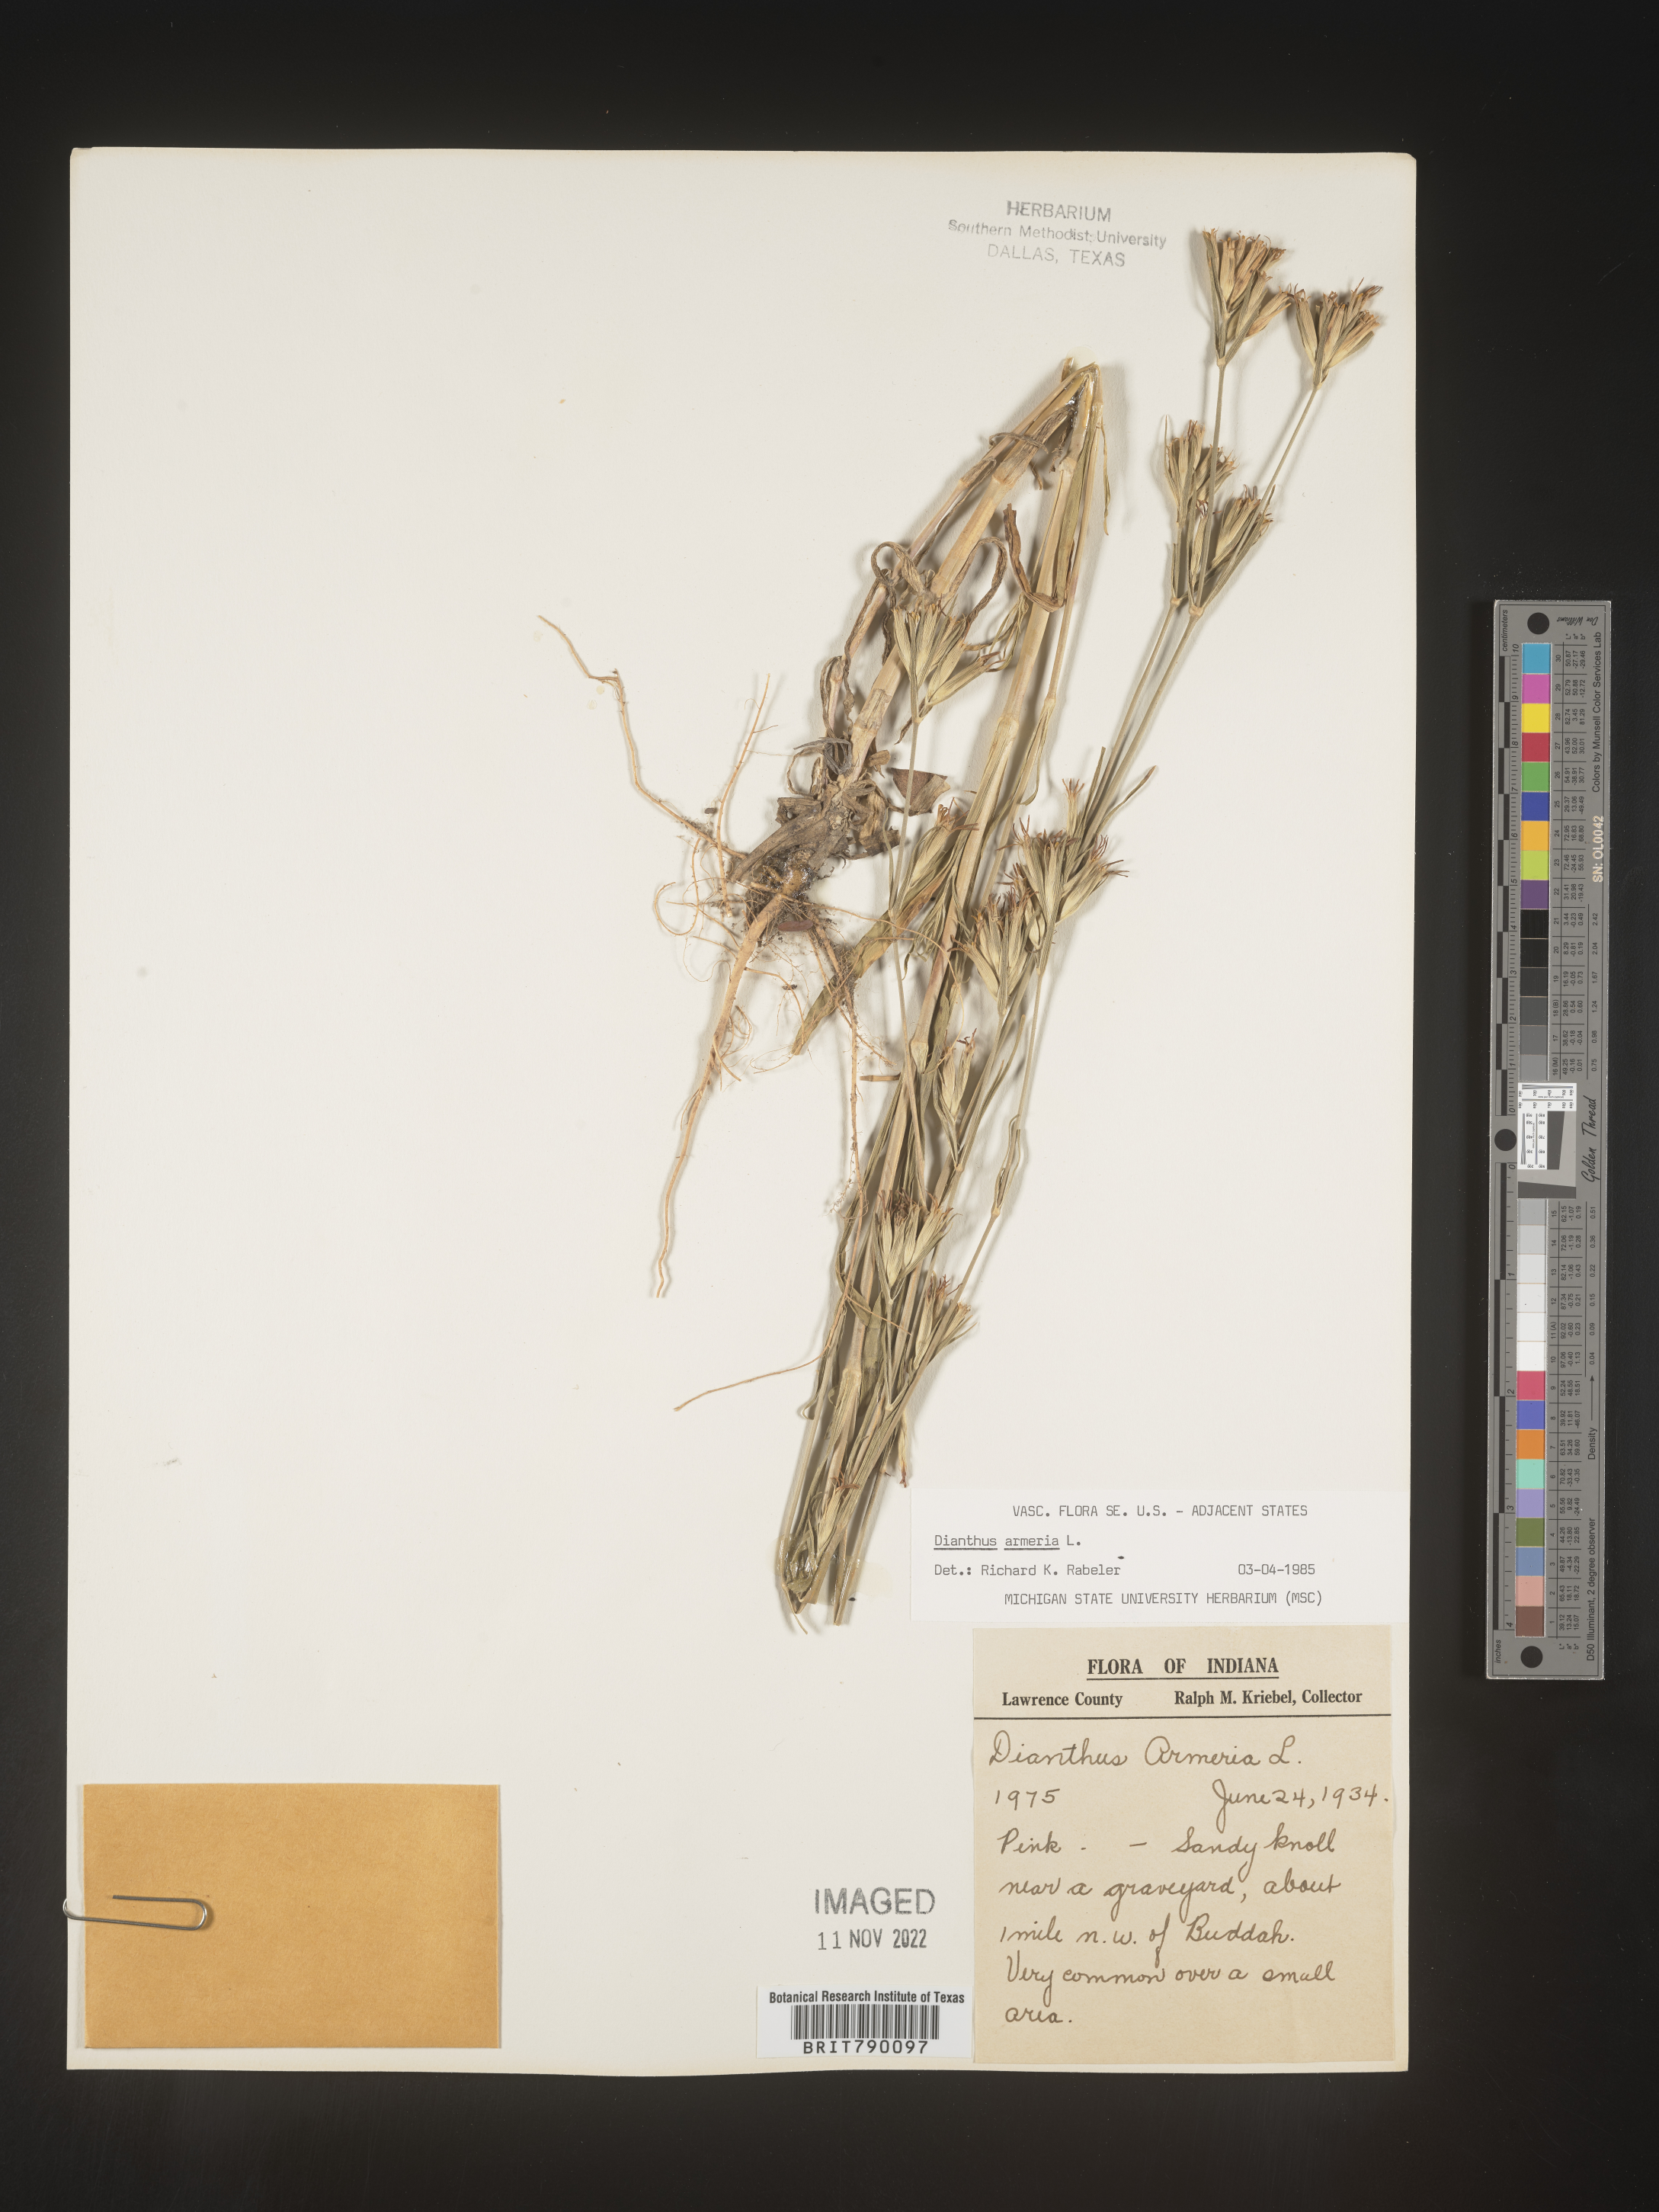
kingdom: Plantae
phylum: Tracheophyta
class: Magnoliopsida
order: Caryophyllales
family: Caryophyllaceae
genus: Dianthus
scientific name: Dianthus armeria
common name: Deptford pink
